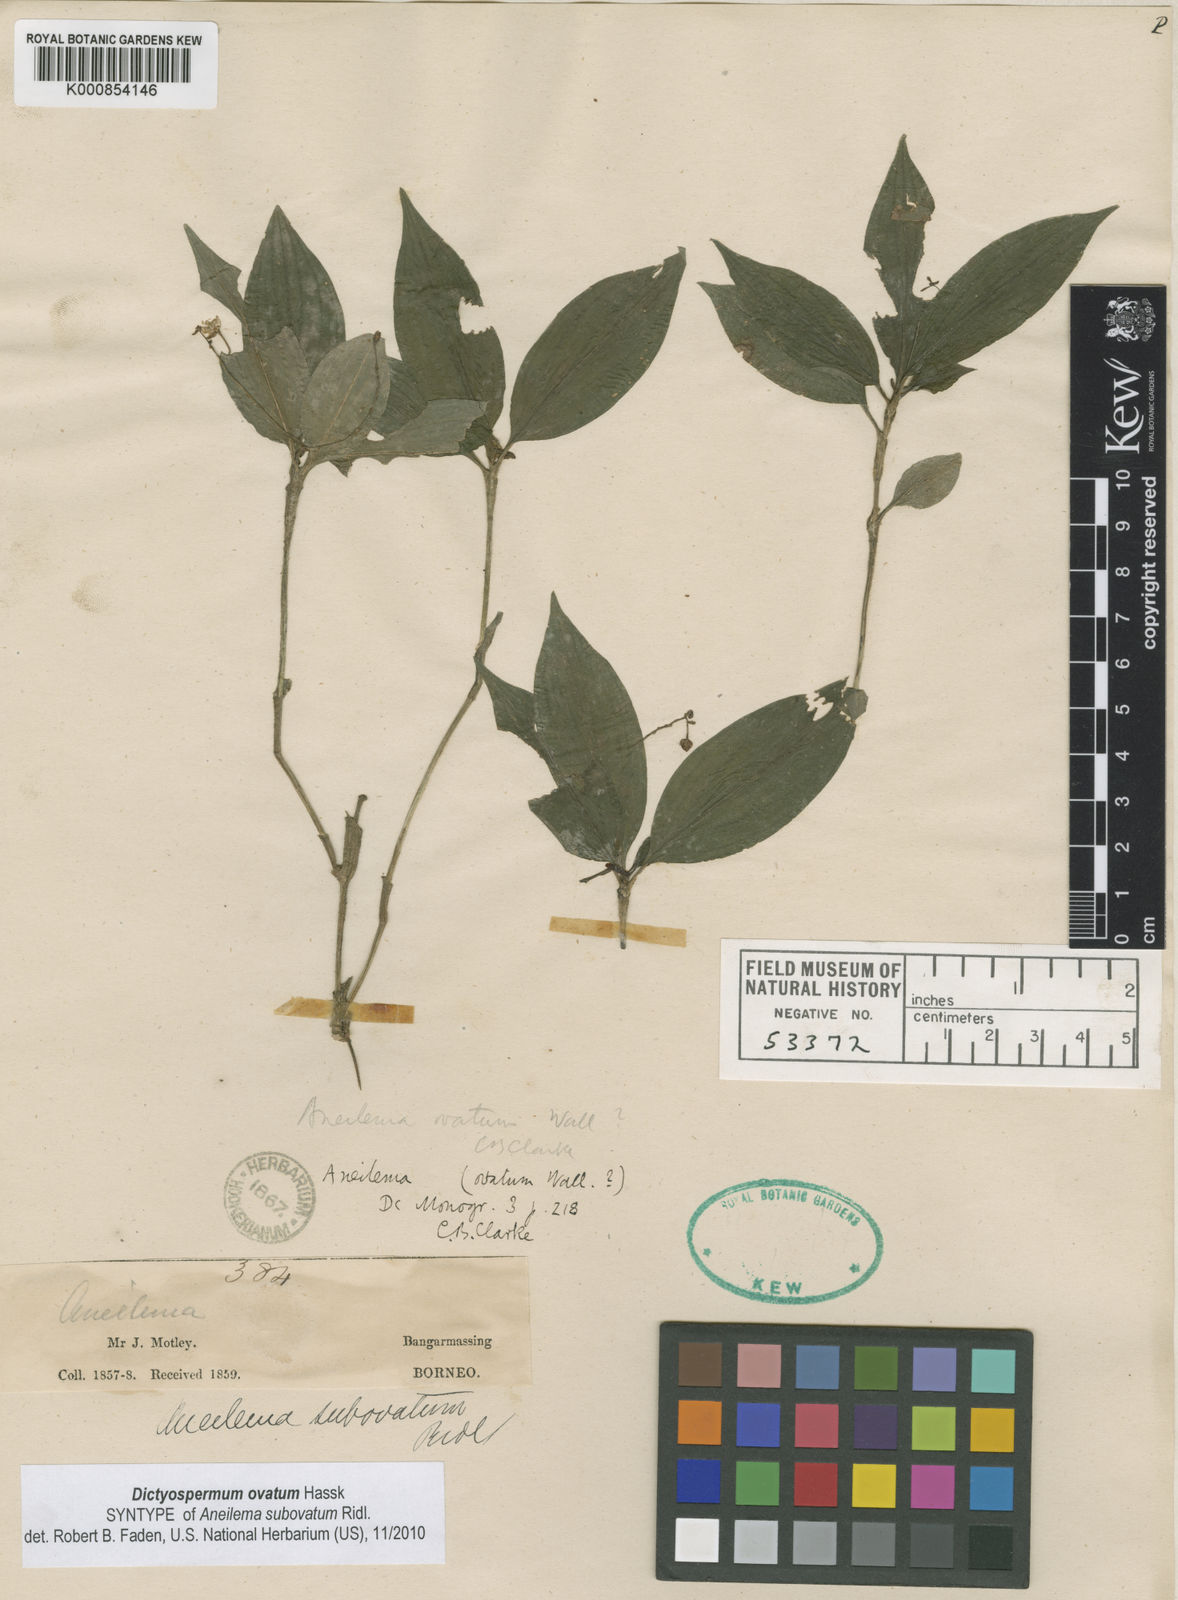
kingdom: Plantae
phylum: Tracheophyta
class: Liliopsida
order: Commelinales
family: Commelinaceae
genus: Dictyospermum
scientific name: Dictyospermum ovatum
